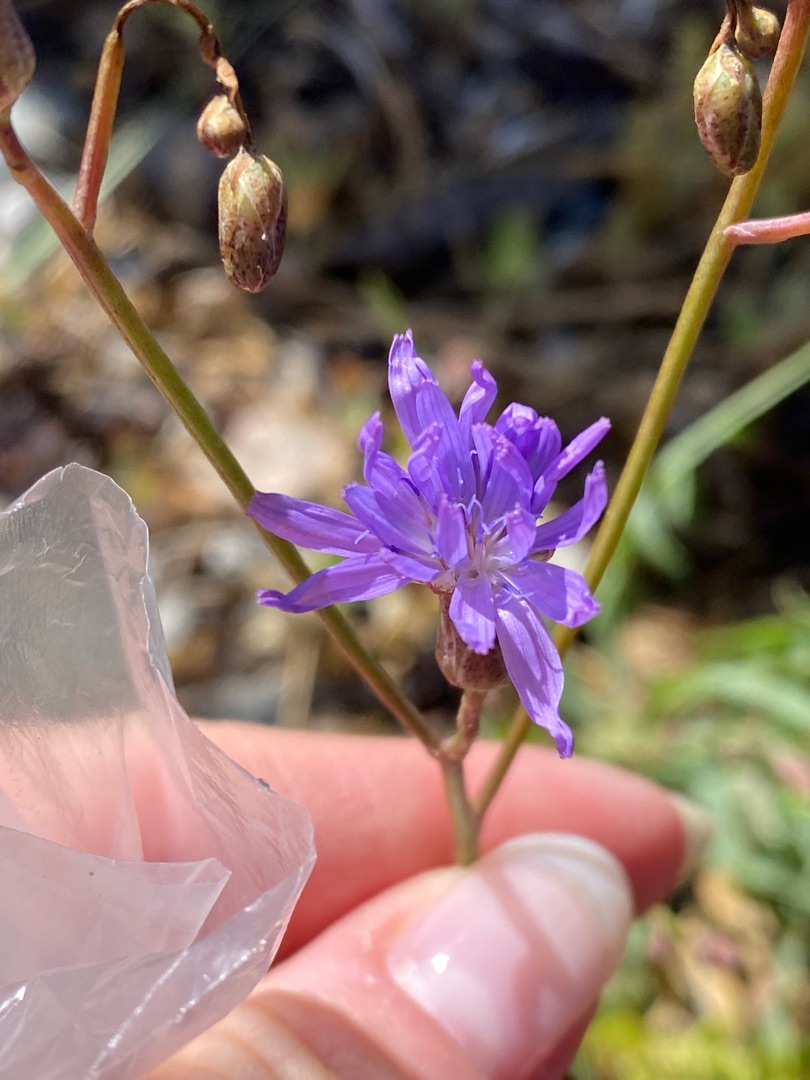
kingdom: Plantae
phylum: Tracheophyta
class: Magnoliopsida
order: Asterales
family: Asteraceae
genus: Lactuca
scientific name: Lactuca tatarica
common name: Strand-salat
